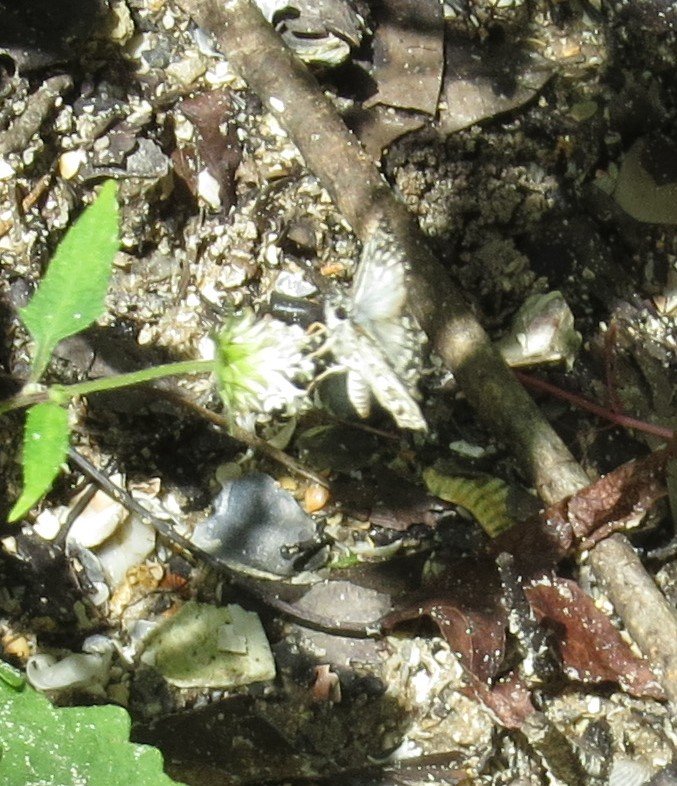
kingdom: Animalia
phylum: Arthropoda
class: Insecta
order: Lepidoptera
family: Hesperiidae
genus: Pyrgus
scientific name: Pyrgus oileus
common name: Tropical Checkered-Skipper
